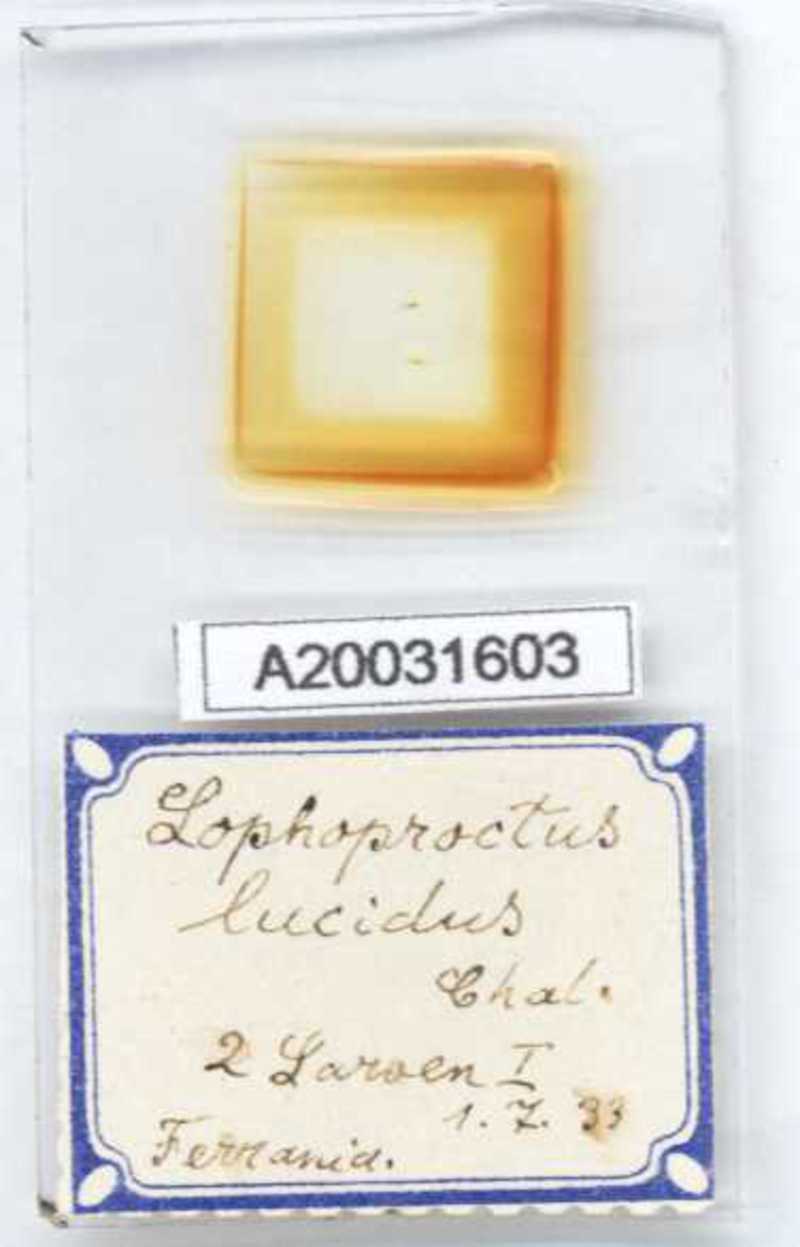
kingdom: Animalia
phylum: Arthropoda
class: Diplopoda
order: Polyxenida
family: Lophoproctidae
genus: Lophoproctus
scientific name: Lophoproctus lucidus
